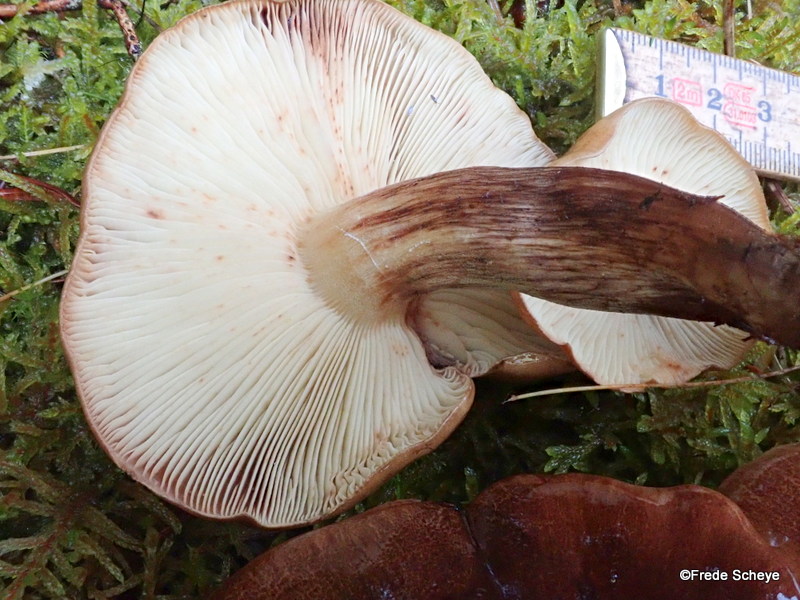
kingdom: Fungi
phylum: Basidiomycota
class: Agaricomycetes
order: Agaricales
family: Tricholomataceae
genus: Tricholoma
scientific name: Tricholoma fulvum
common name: birke-ridderhat
